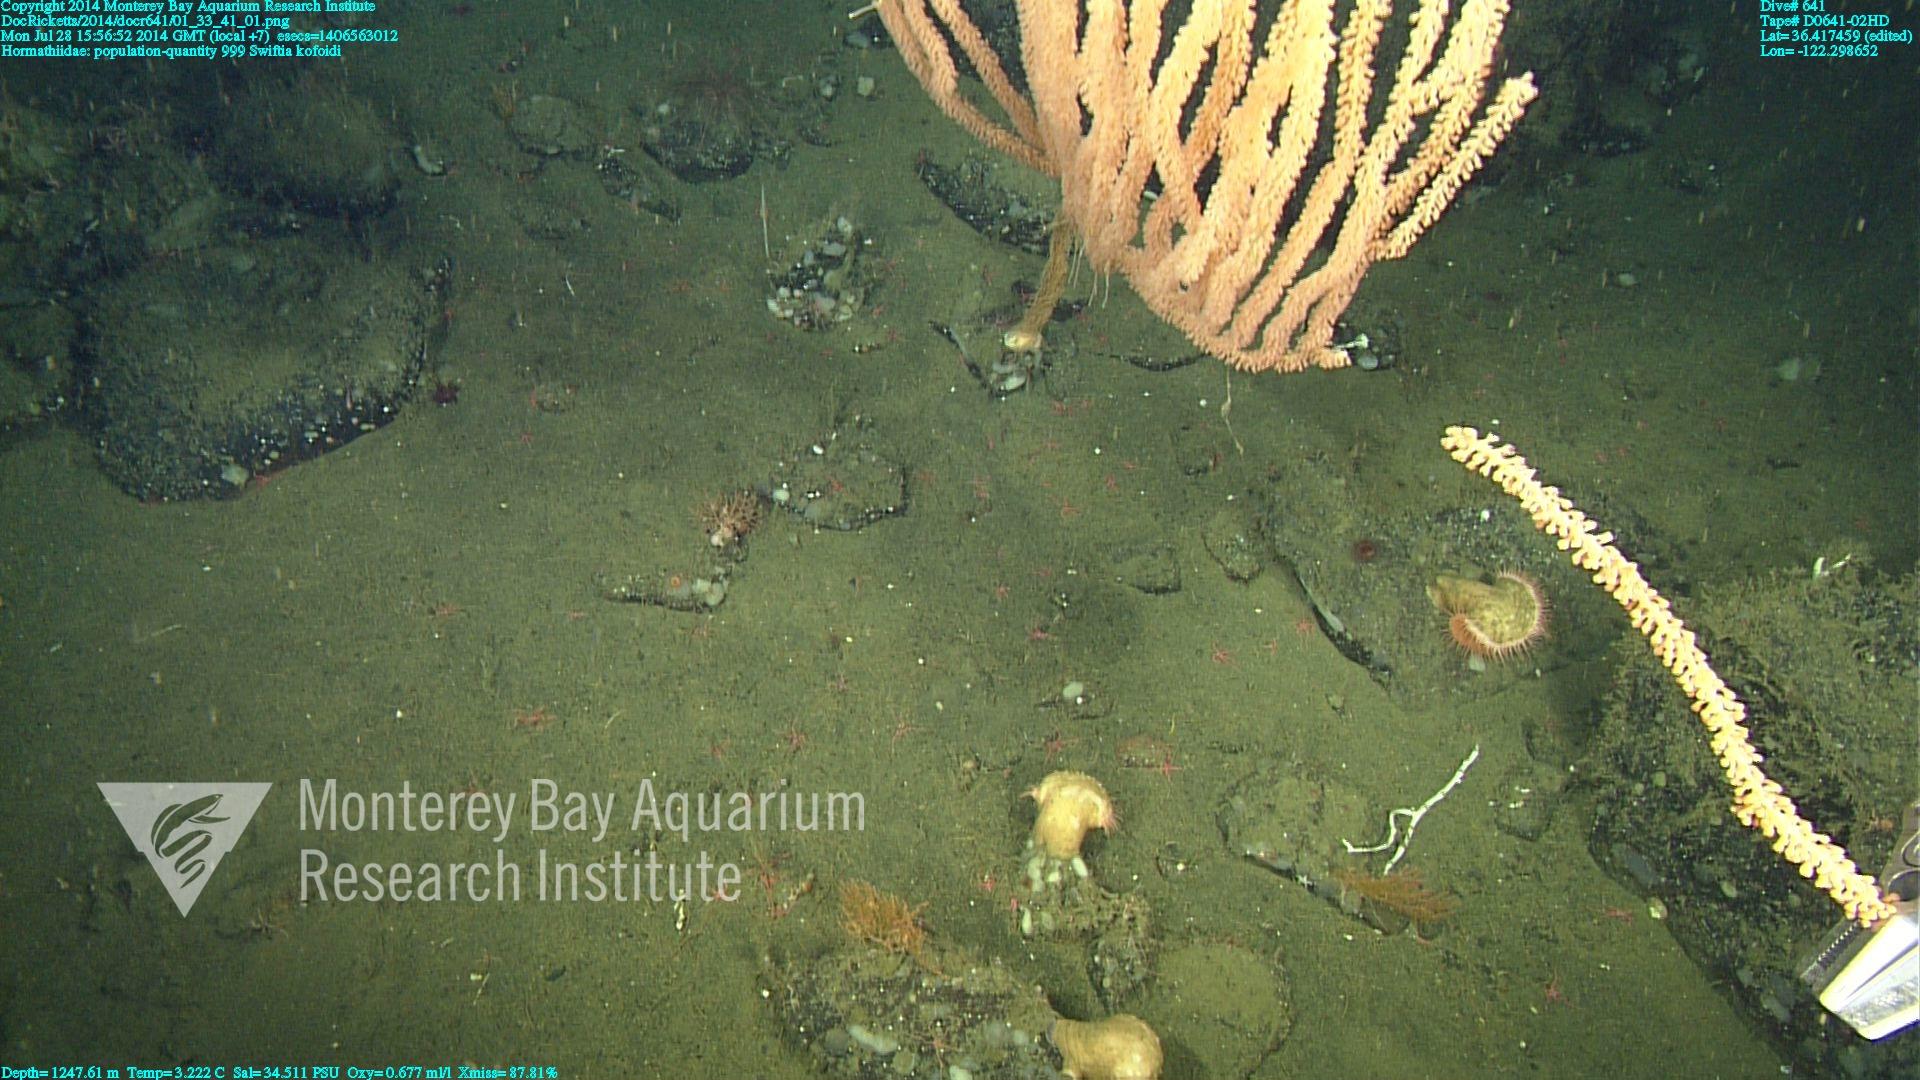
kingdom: Animalia
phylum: Cnidaria
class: Anthozoa
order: Malacalcyonacea
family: Gorgoniidae
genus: Callistephanus
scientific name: Callistephanus kofoidi
